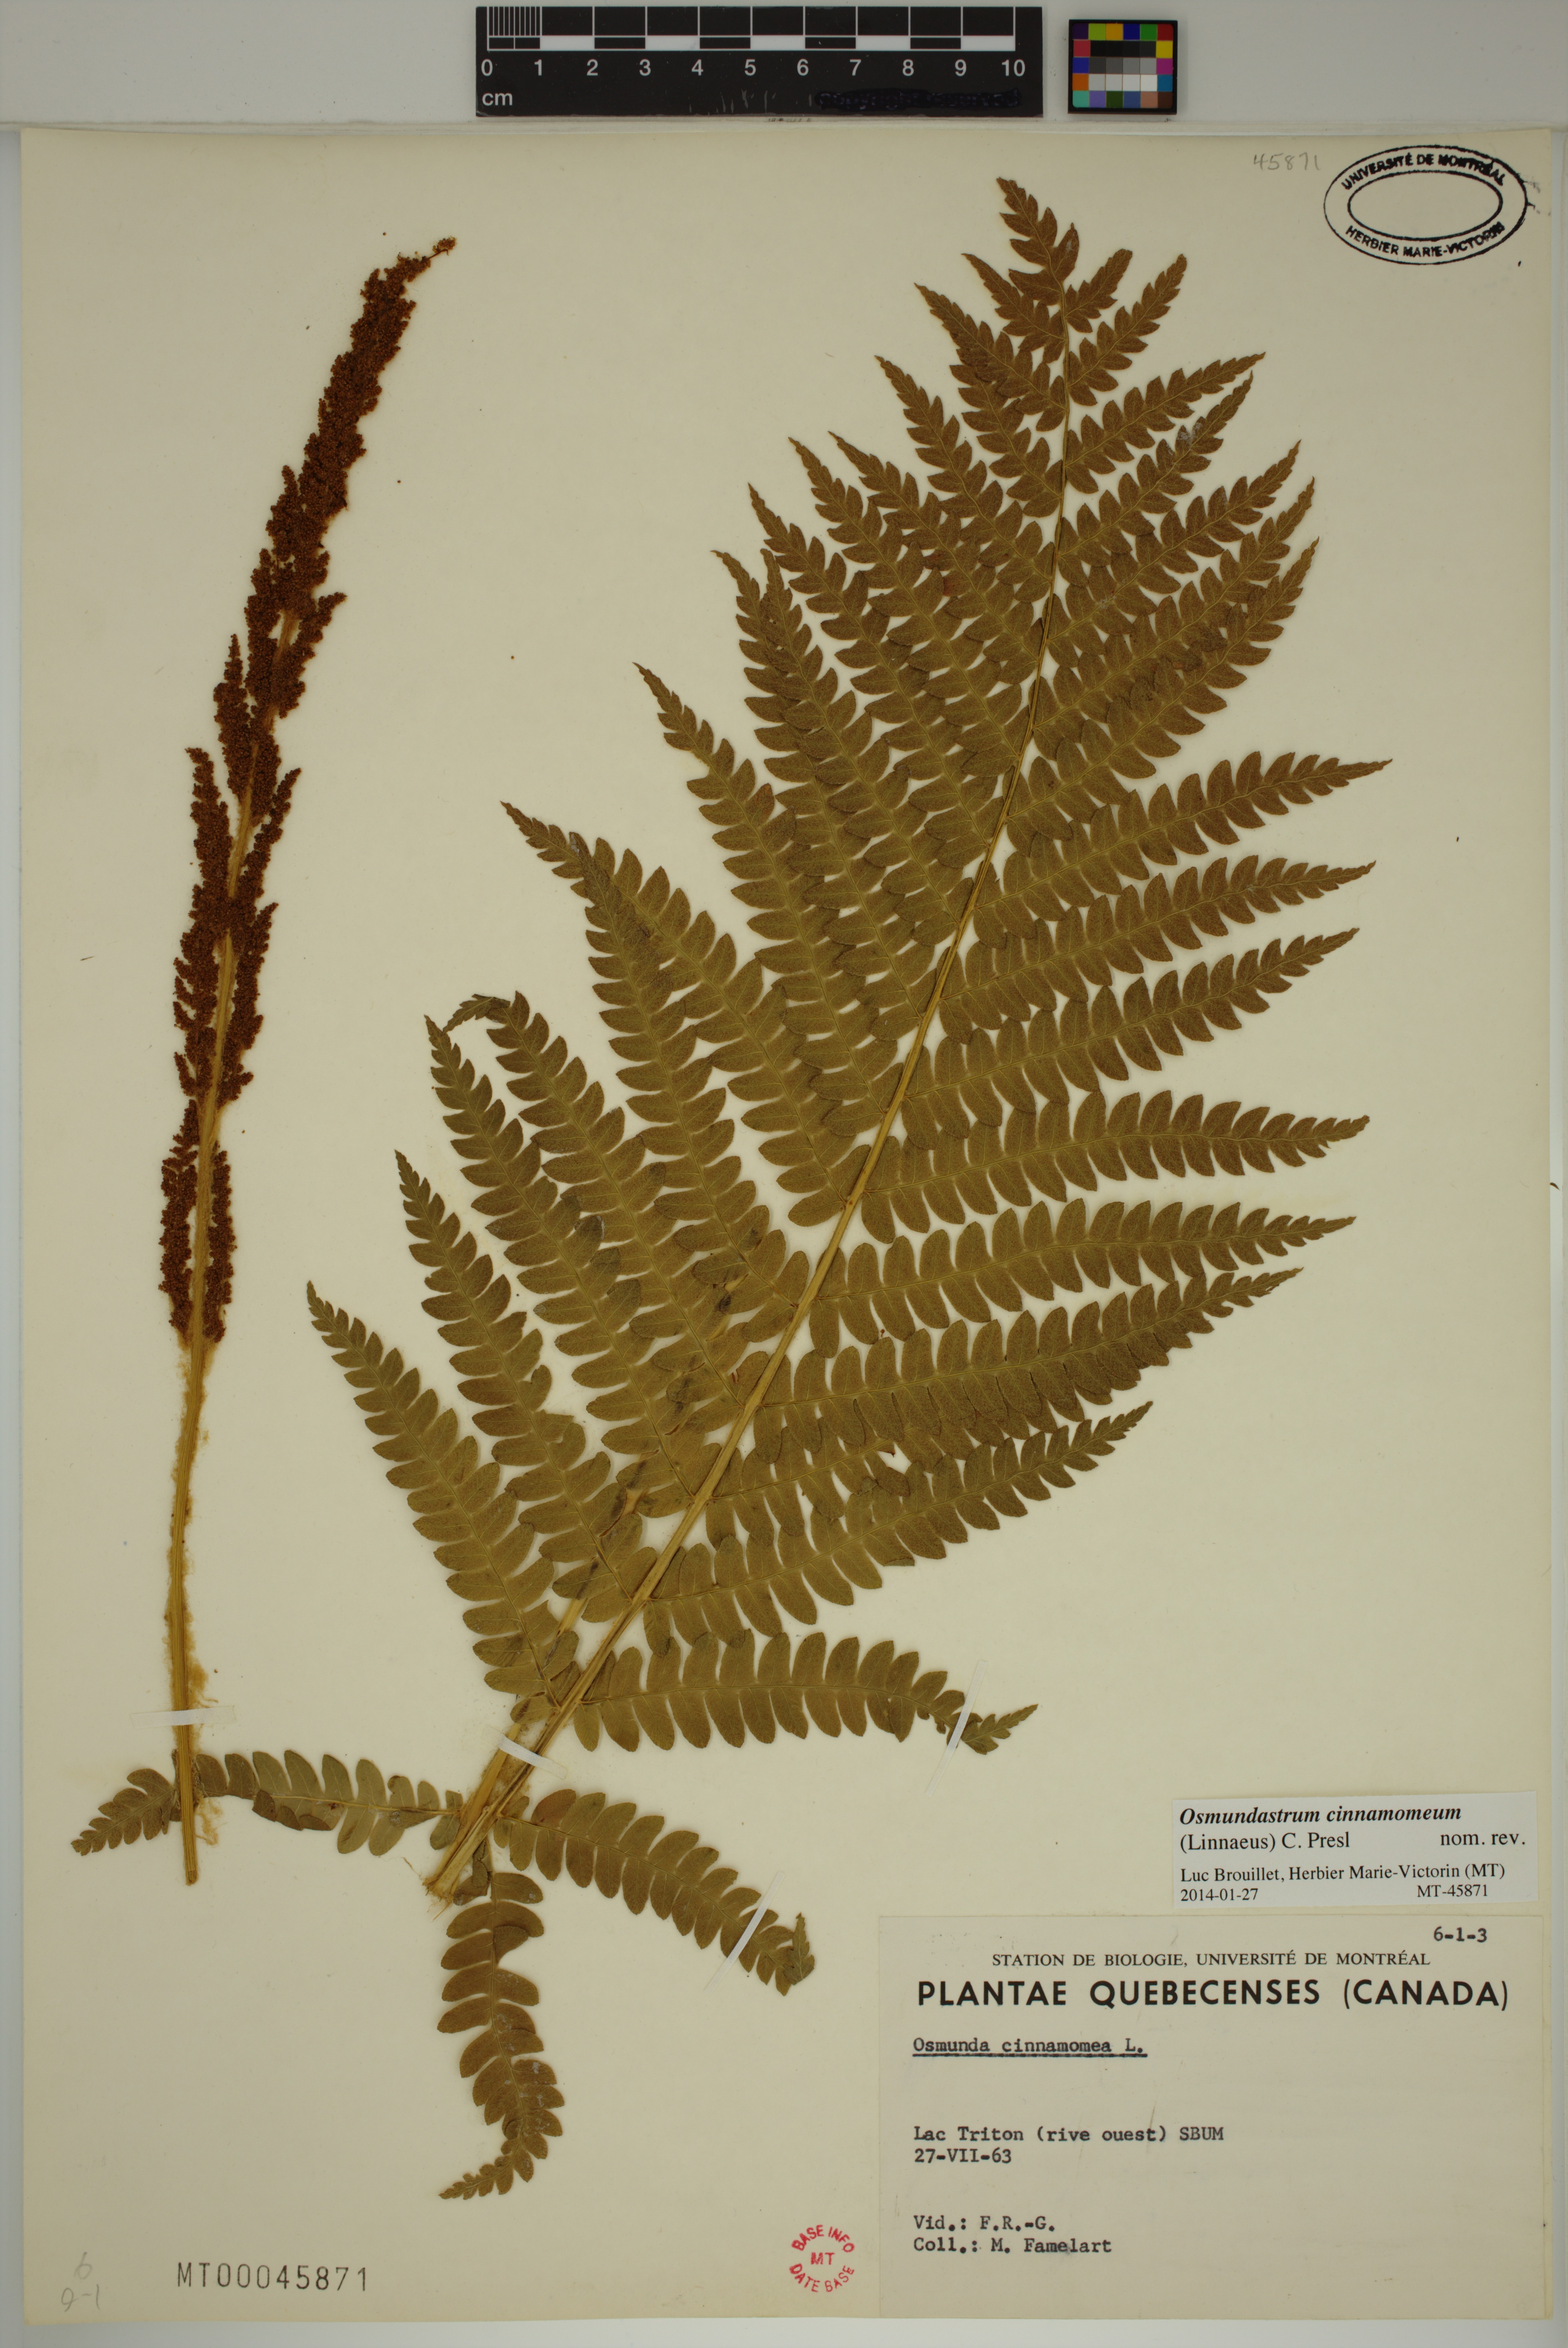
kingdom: Plantae
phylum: Tracheophyta
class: Polypodiopsida
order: Osmundales
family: Osmundaceae
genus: Osmundastrum
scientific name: Osmundastrum cinnamomeum
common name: Cinnamon fern
